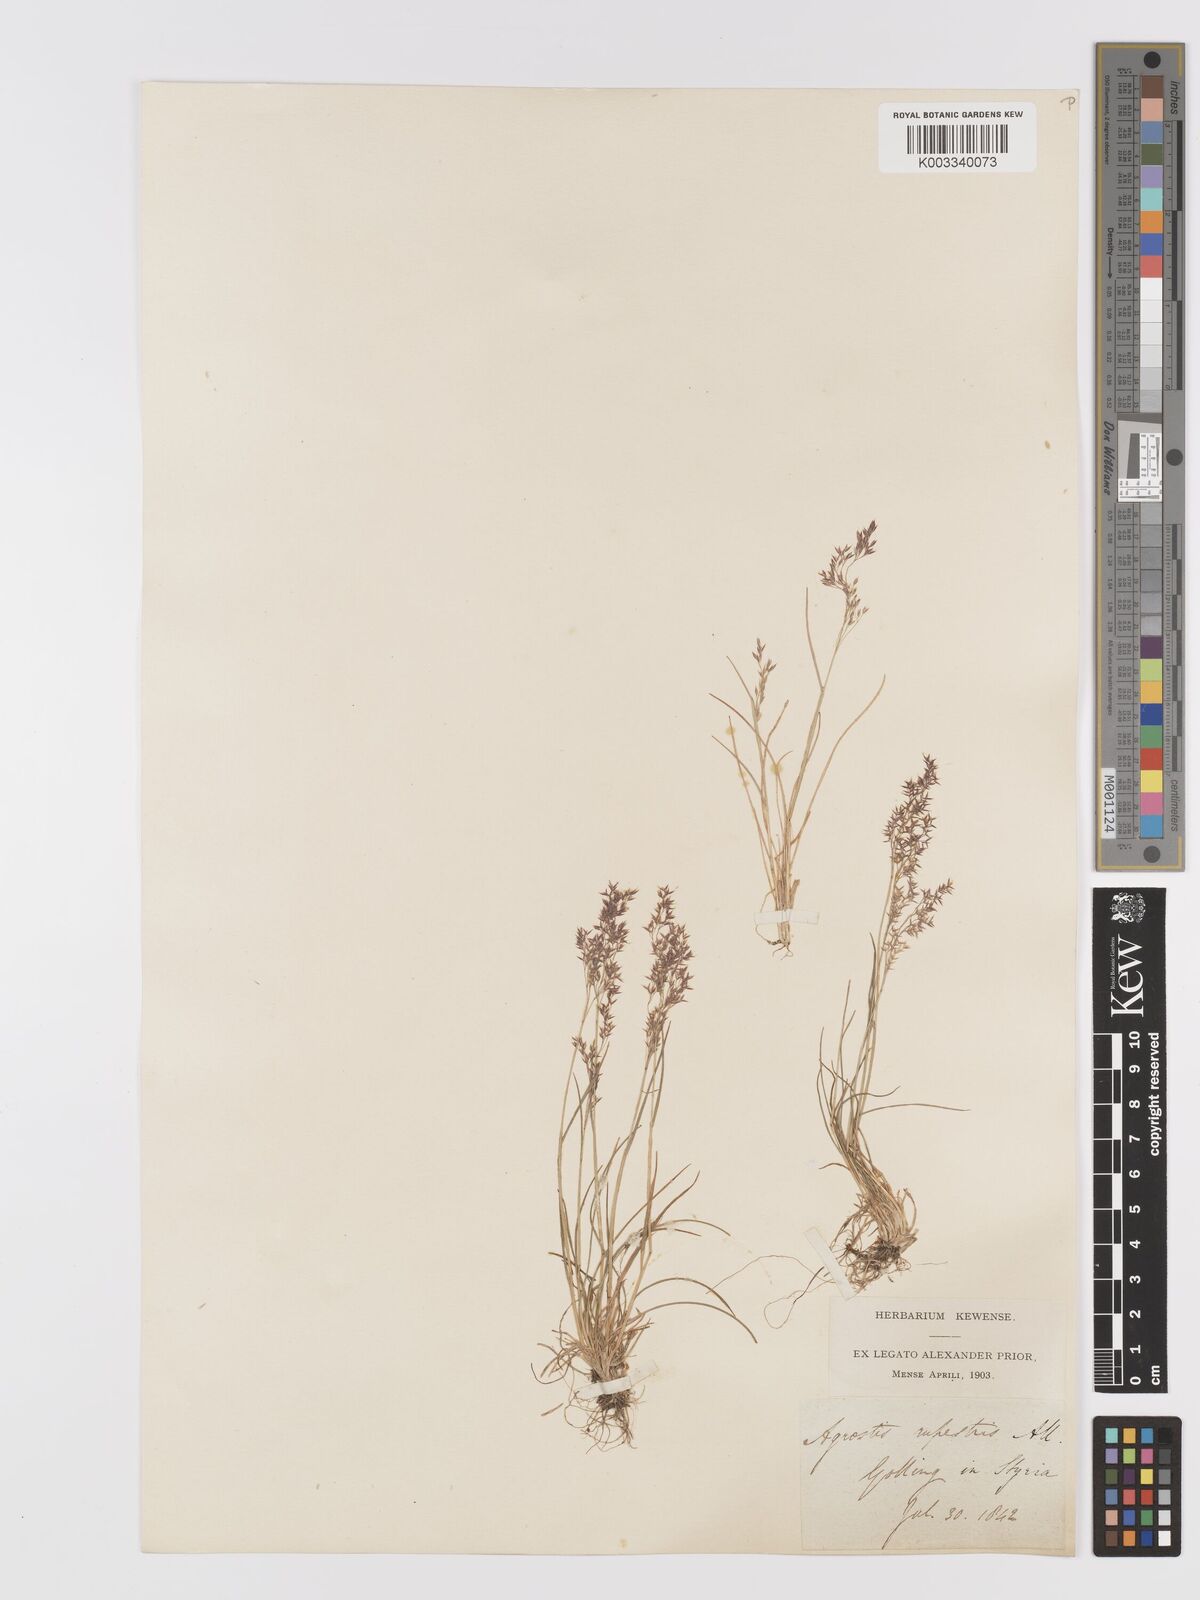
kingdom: Plantae
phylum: Tracheophyta
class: Liliopsida
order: Poales
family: Poaceae
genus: Agrostis
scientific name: Agrostis rupestris
